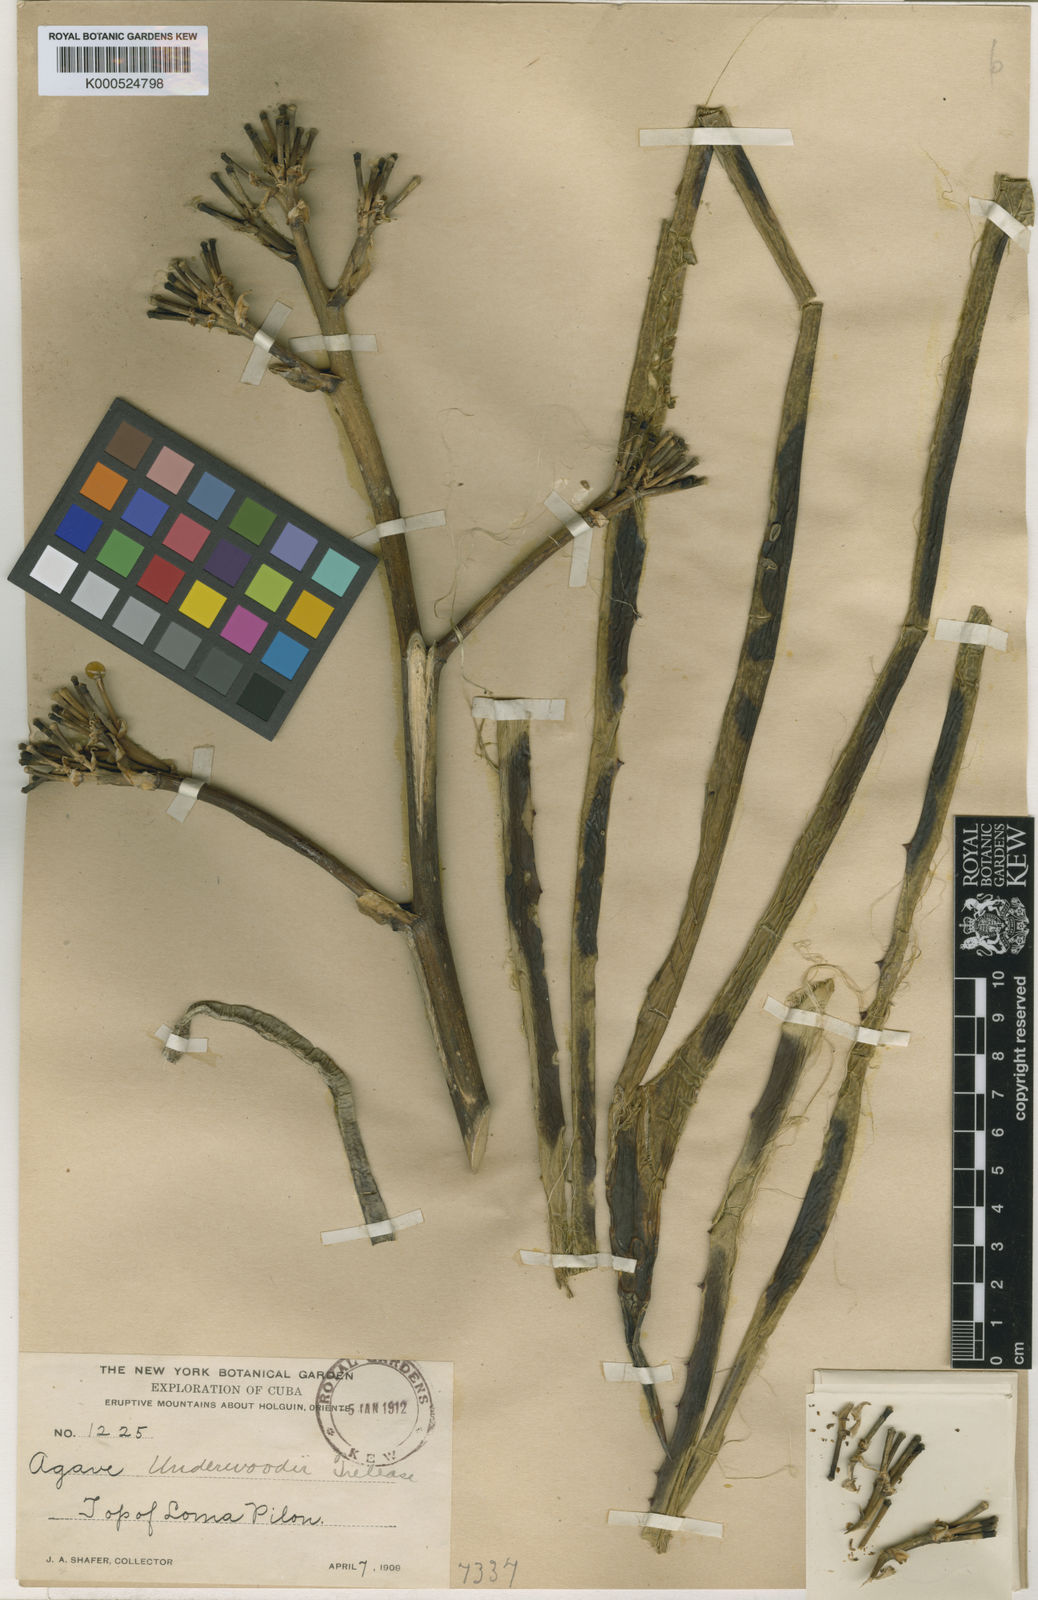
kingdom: Plantae
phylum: Tracheophyta
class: Liliopsida
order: Asparagales
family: Asparagaceae
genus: Agave
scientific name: Agave underwoodii
